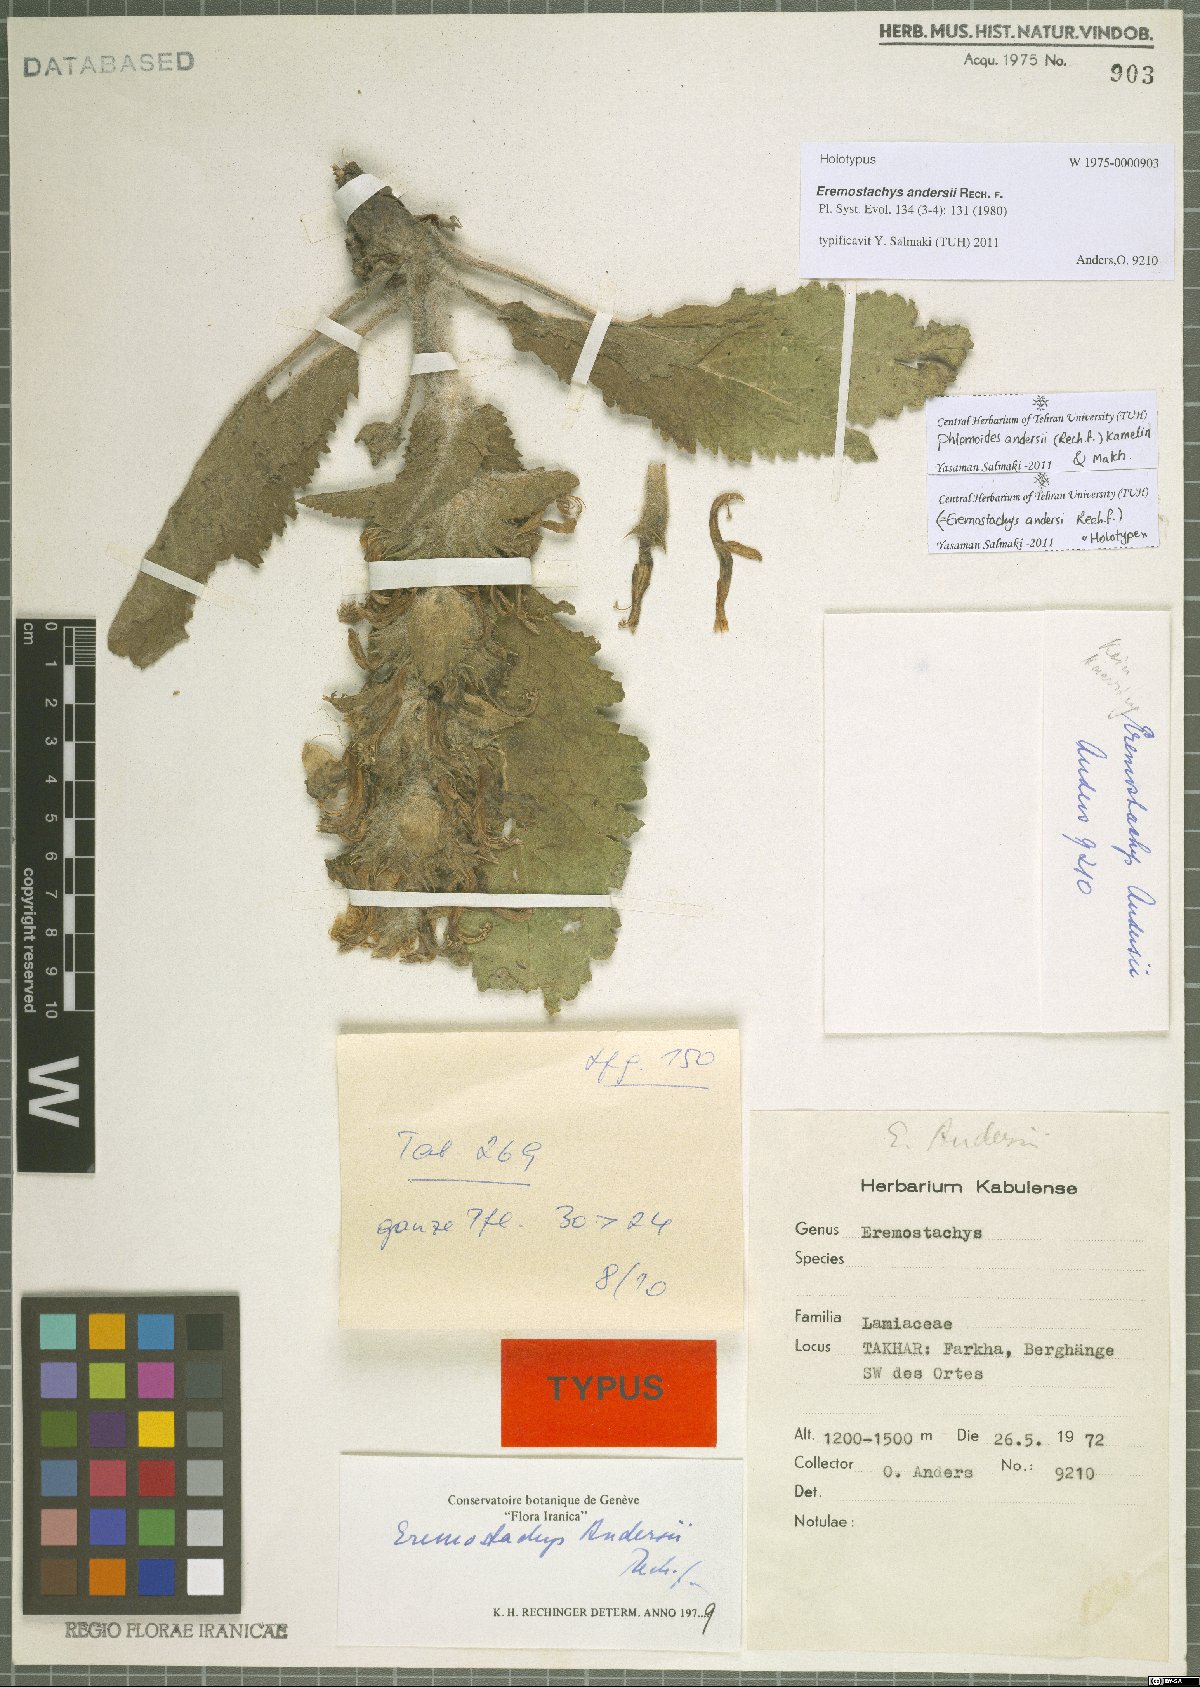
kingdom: Plantae
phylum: Tracheophyta
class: Magnoliopsida
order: Lamiales
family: Lamiaceae
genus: Phlomoides
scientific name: Phlomoides andersii
